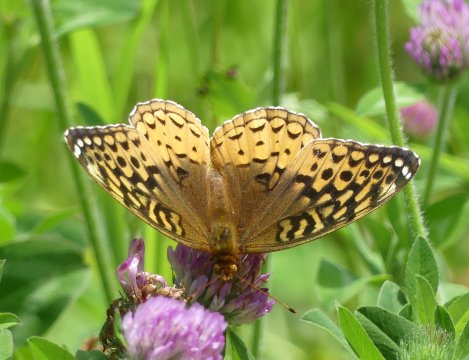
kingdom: Animalia
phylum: Arthropoda
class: Insecta
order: Lepidoptera
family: Nymphalidae
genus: Speyeria
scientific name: Speyeria cybele
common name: Great Spangled Fritillary
